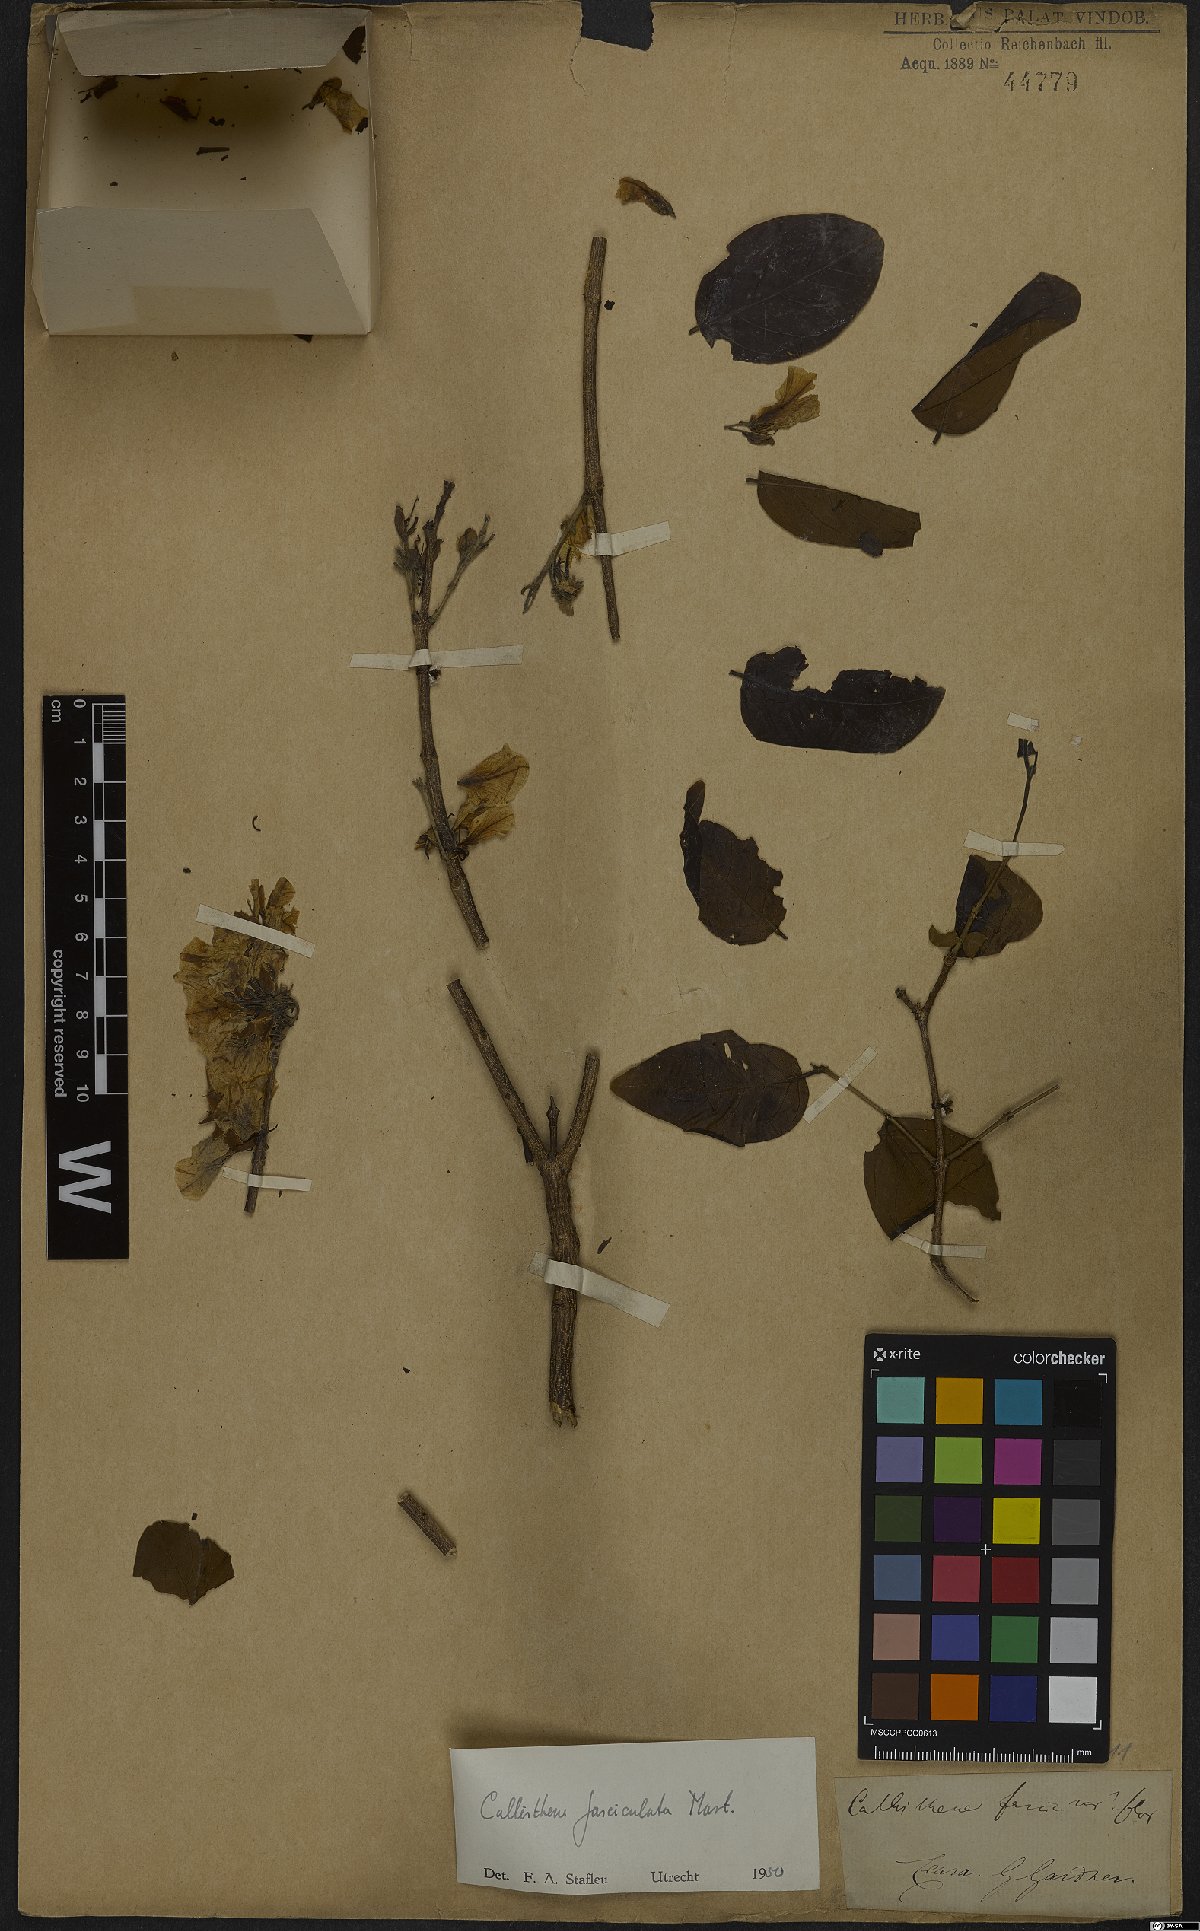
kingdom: Plantae
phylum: Tracheophyta
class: Magnoliopsida
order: Myrtales
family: Vochysiaceae
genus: Callisthene
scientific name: Callisthene fasciculata
